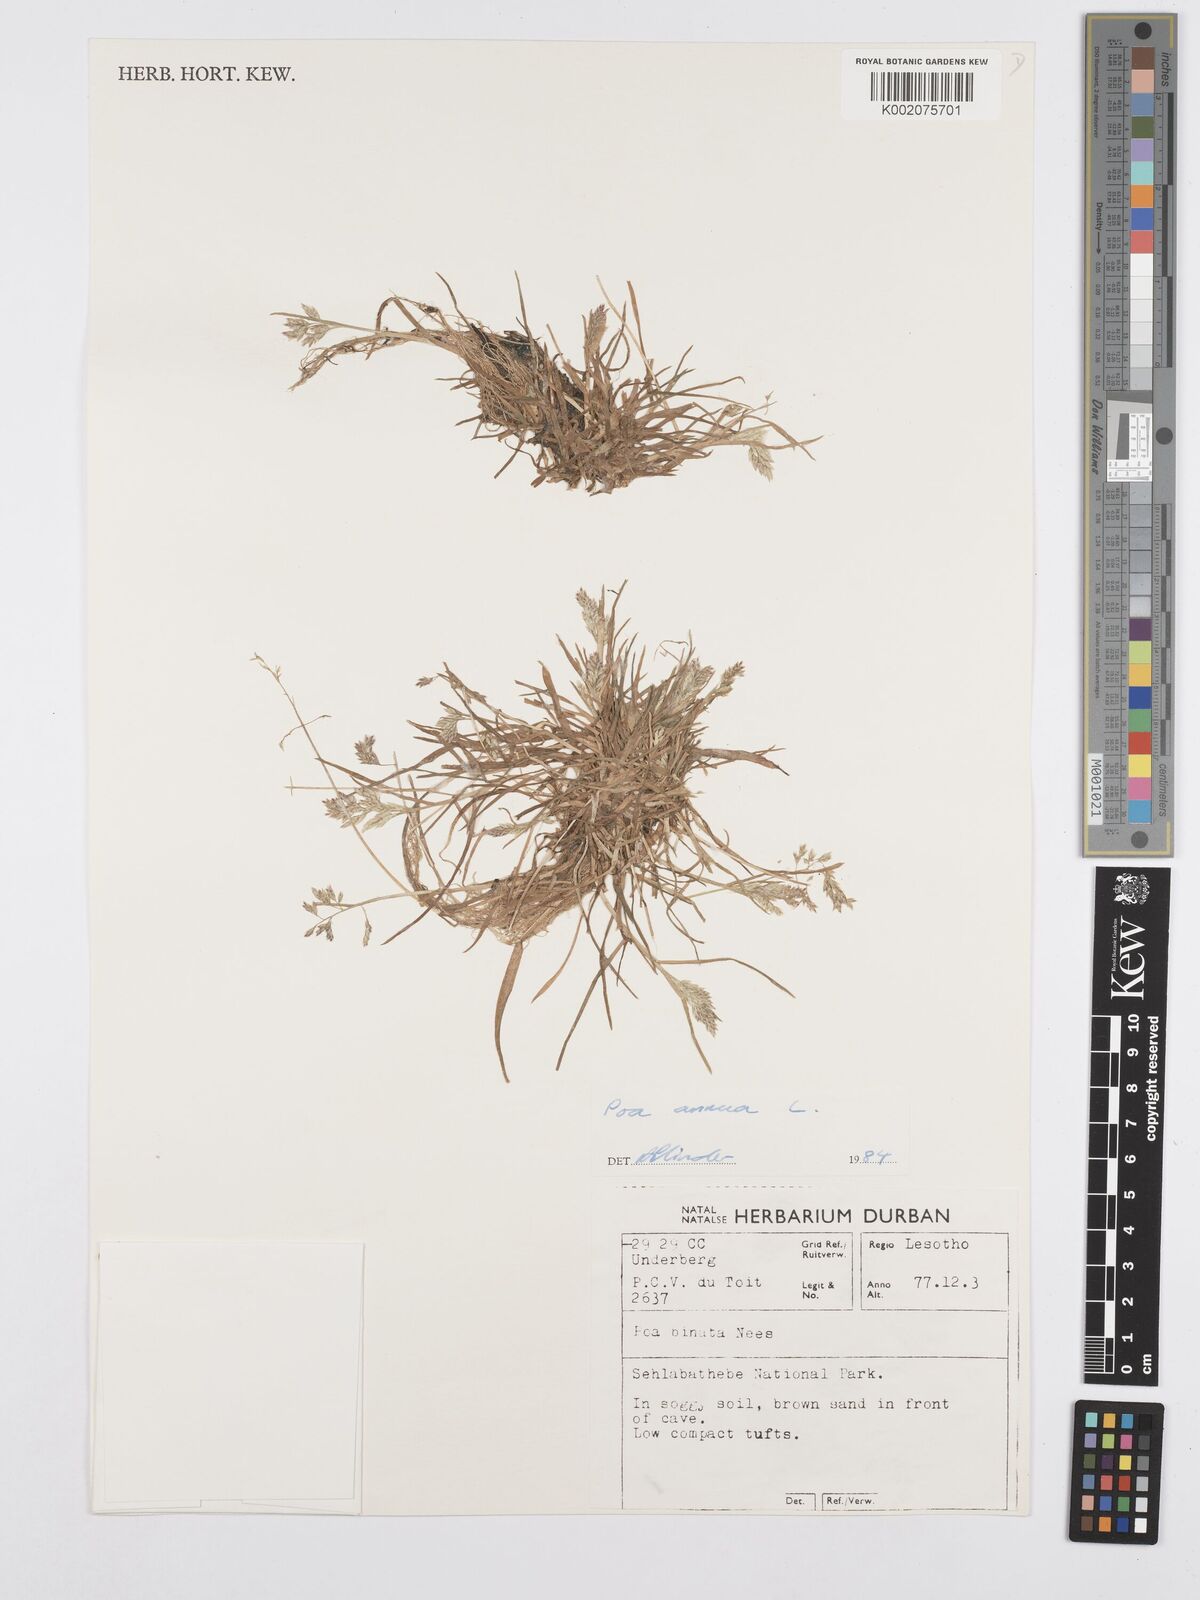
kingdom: Plantae
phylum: Tracheophyta
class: Liliopsida
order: Poales
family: Poaceae
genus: Poa
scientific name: Poa annua
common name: Annual bluegrass
